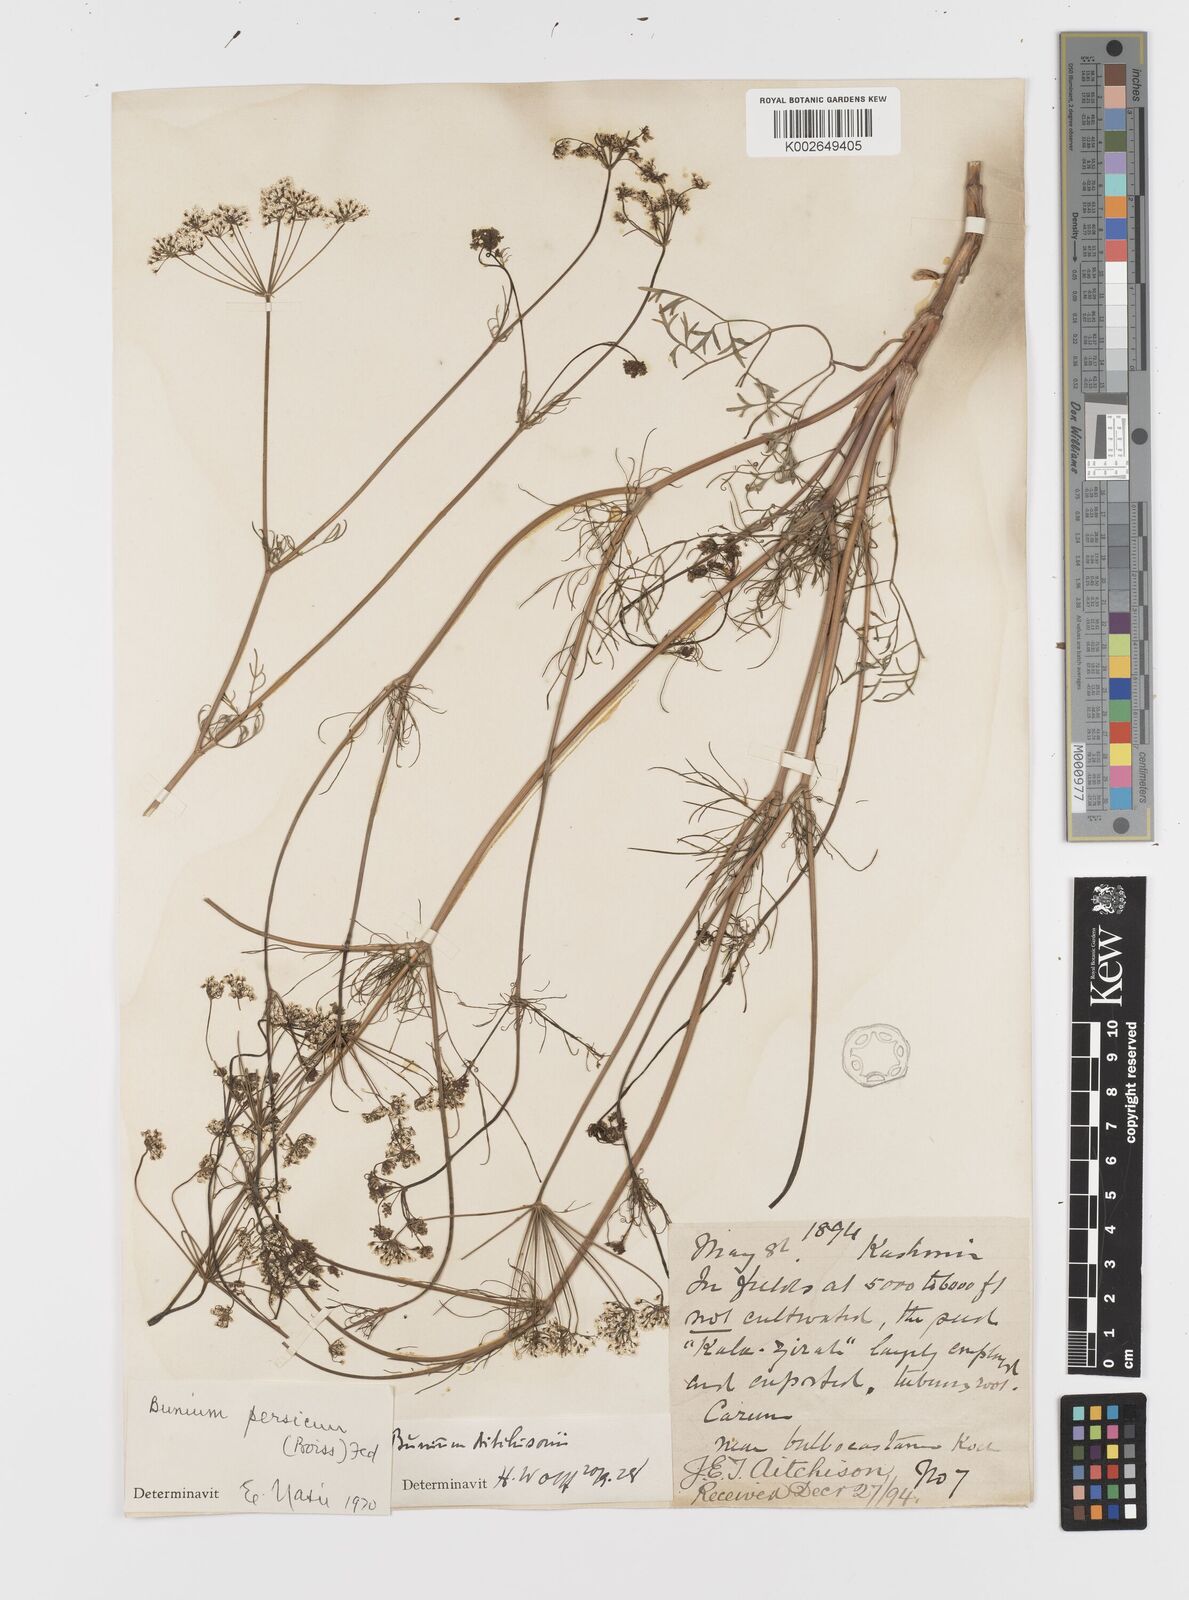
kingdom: Plantae
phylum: Tracheophyta
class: Magnoliopsida
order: Apiales
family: Apiaceae
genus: Bunium
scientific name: Bunium
